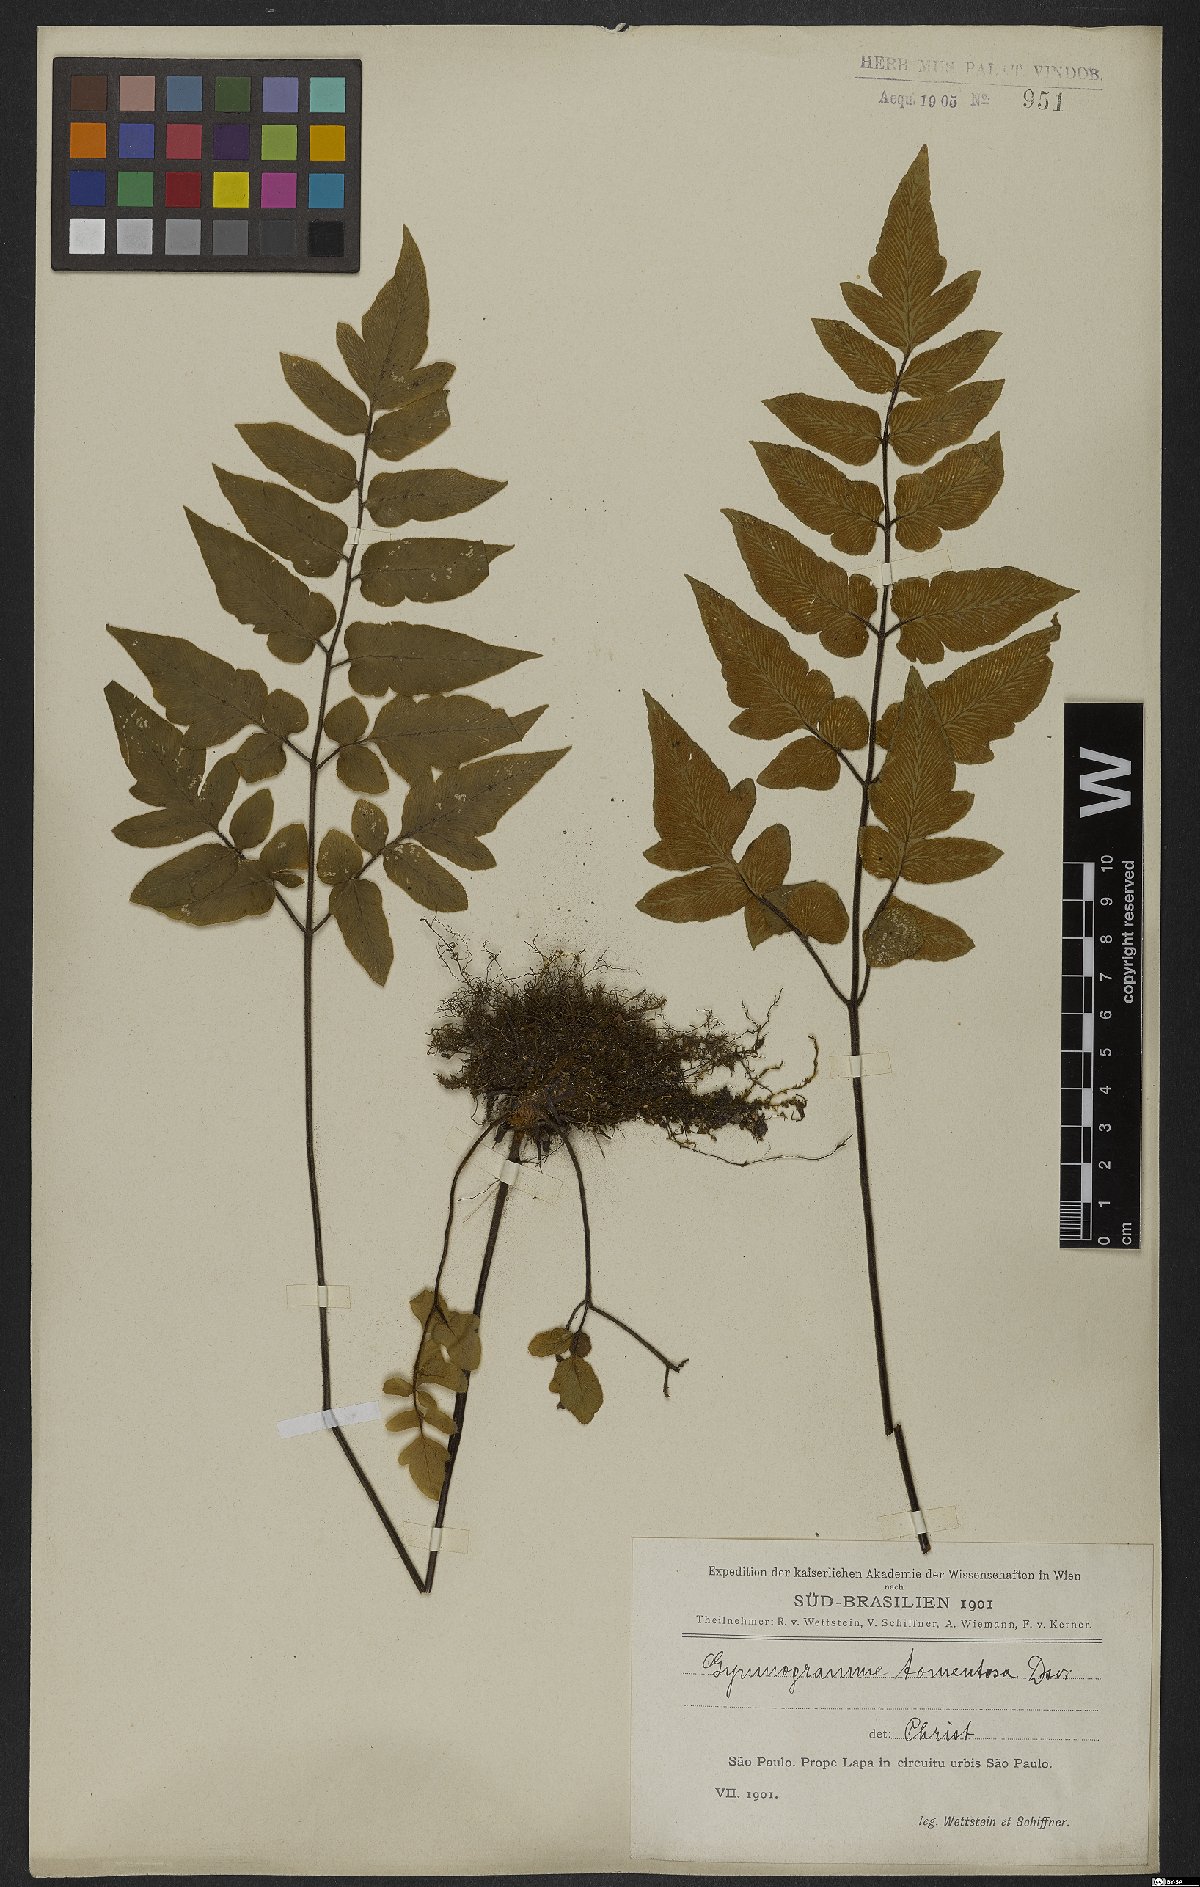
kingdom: Plantae
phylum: Tracheophyta
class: Polypodiopsida
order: Polypodiales
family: Pteridaceae
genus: Hemionitis
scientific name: Hemionitis tomentosa
